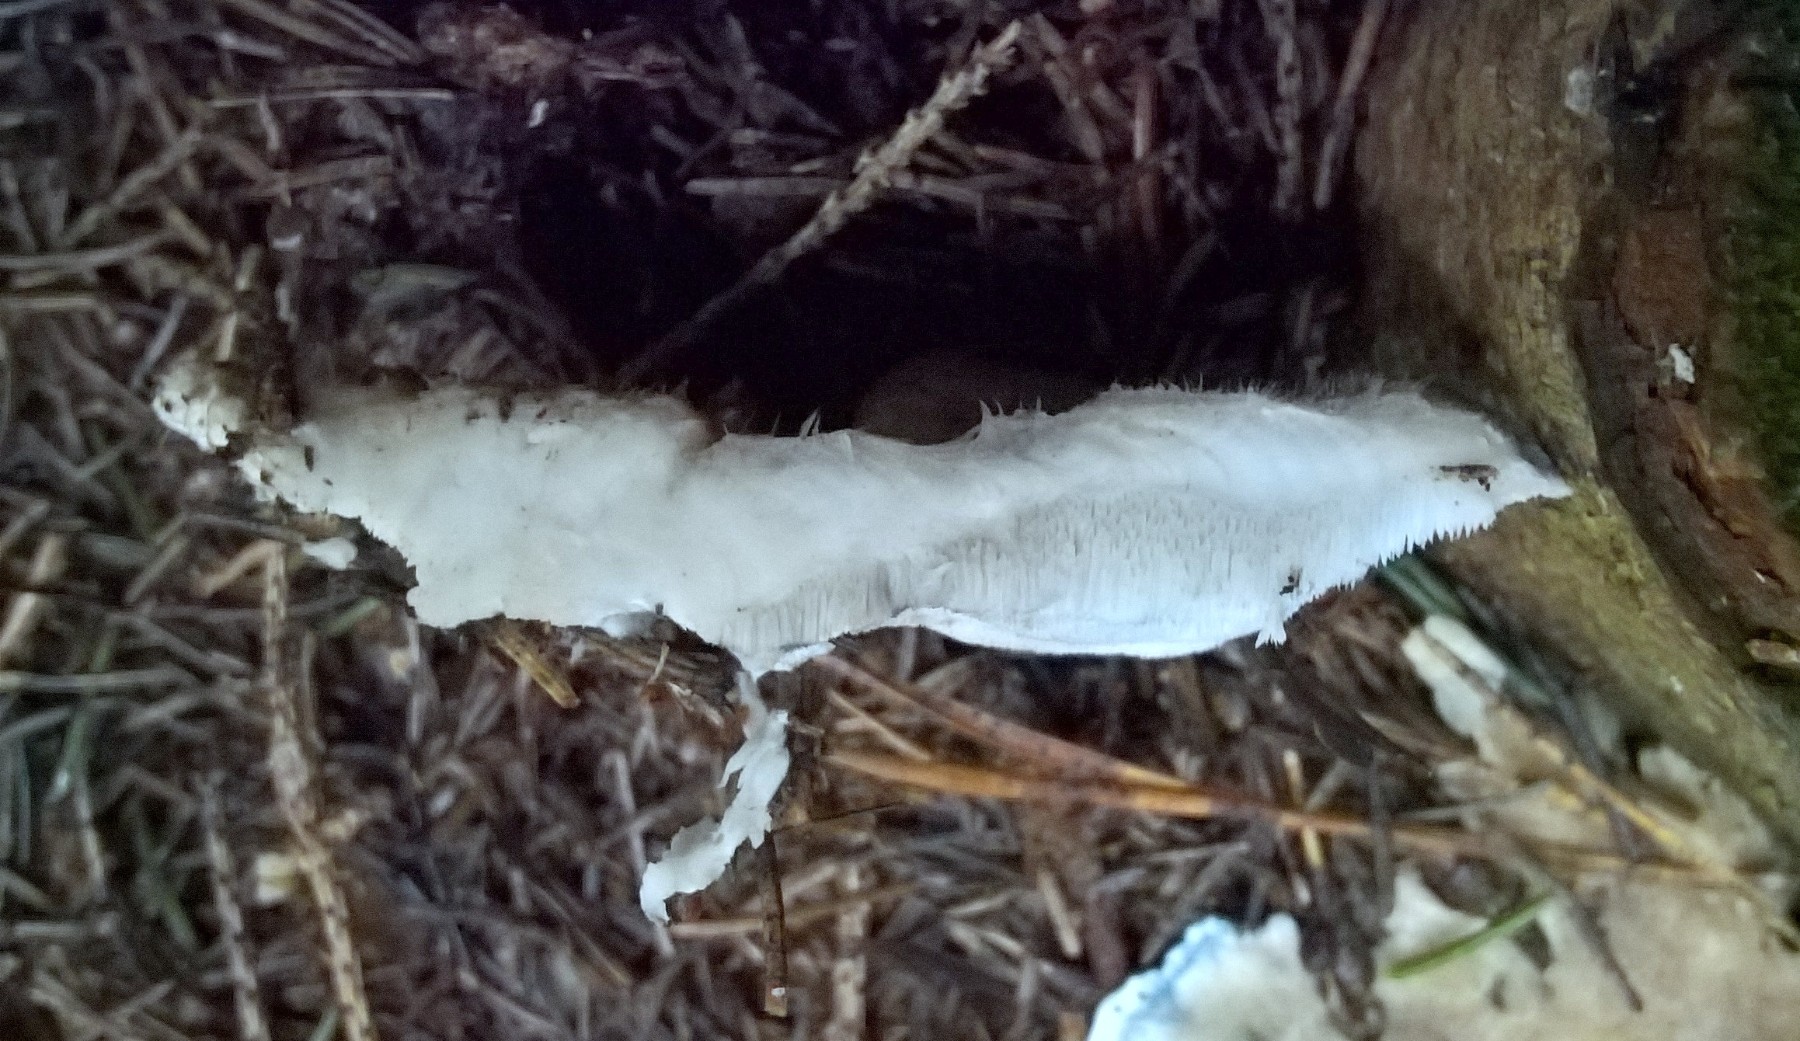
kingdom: Fungi
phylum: Basidiomycota
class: Agaricomycetes
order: Polyporales
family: Polyporaceae
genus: Cyanosporus
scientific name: Cyanosporus caesius
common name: blålig kødporesvamp
